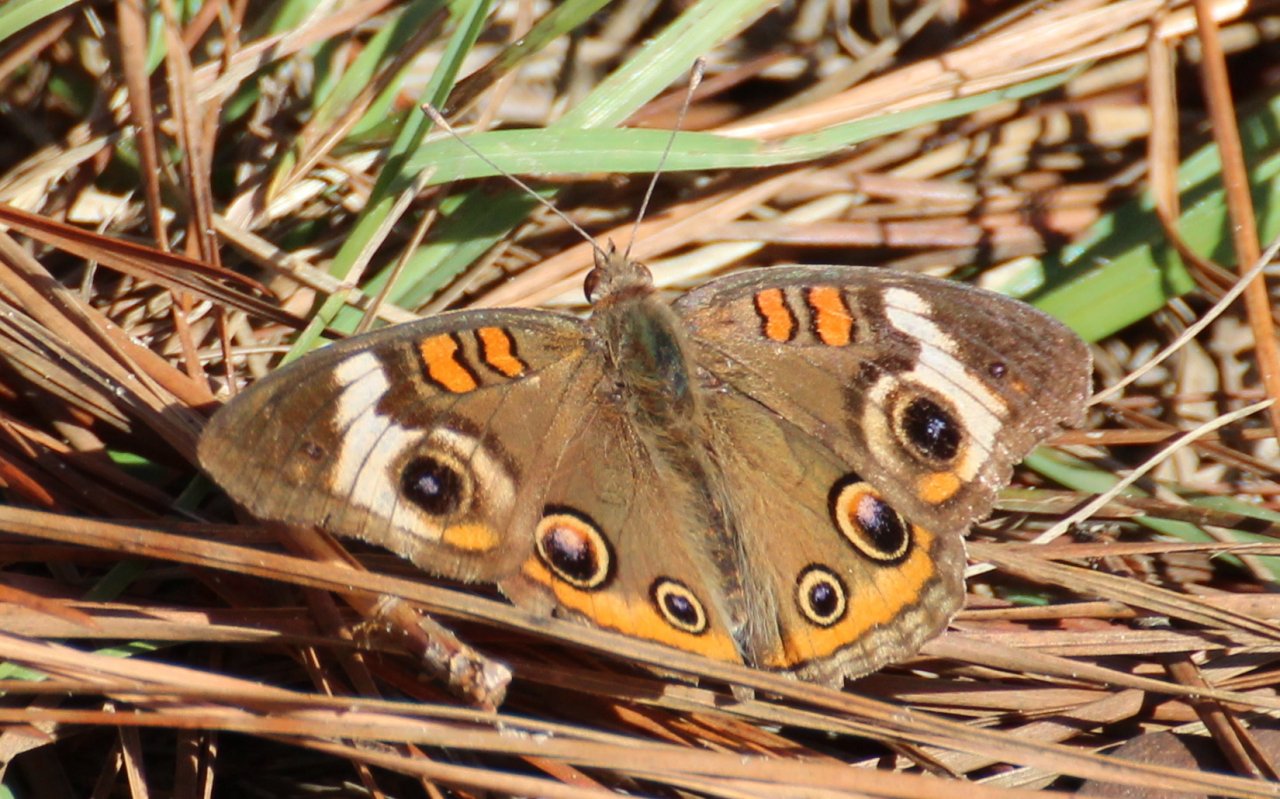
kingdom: Animalia
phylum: Arthropoda
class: Insecta
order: Lepidoptera
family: Nymphalidae
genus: Junonia
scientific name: Junonia coenia
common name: Common Buckeye
